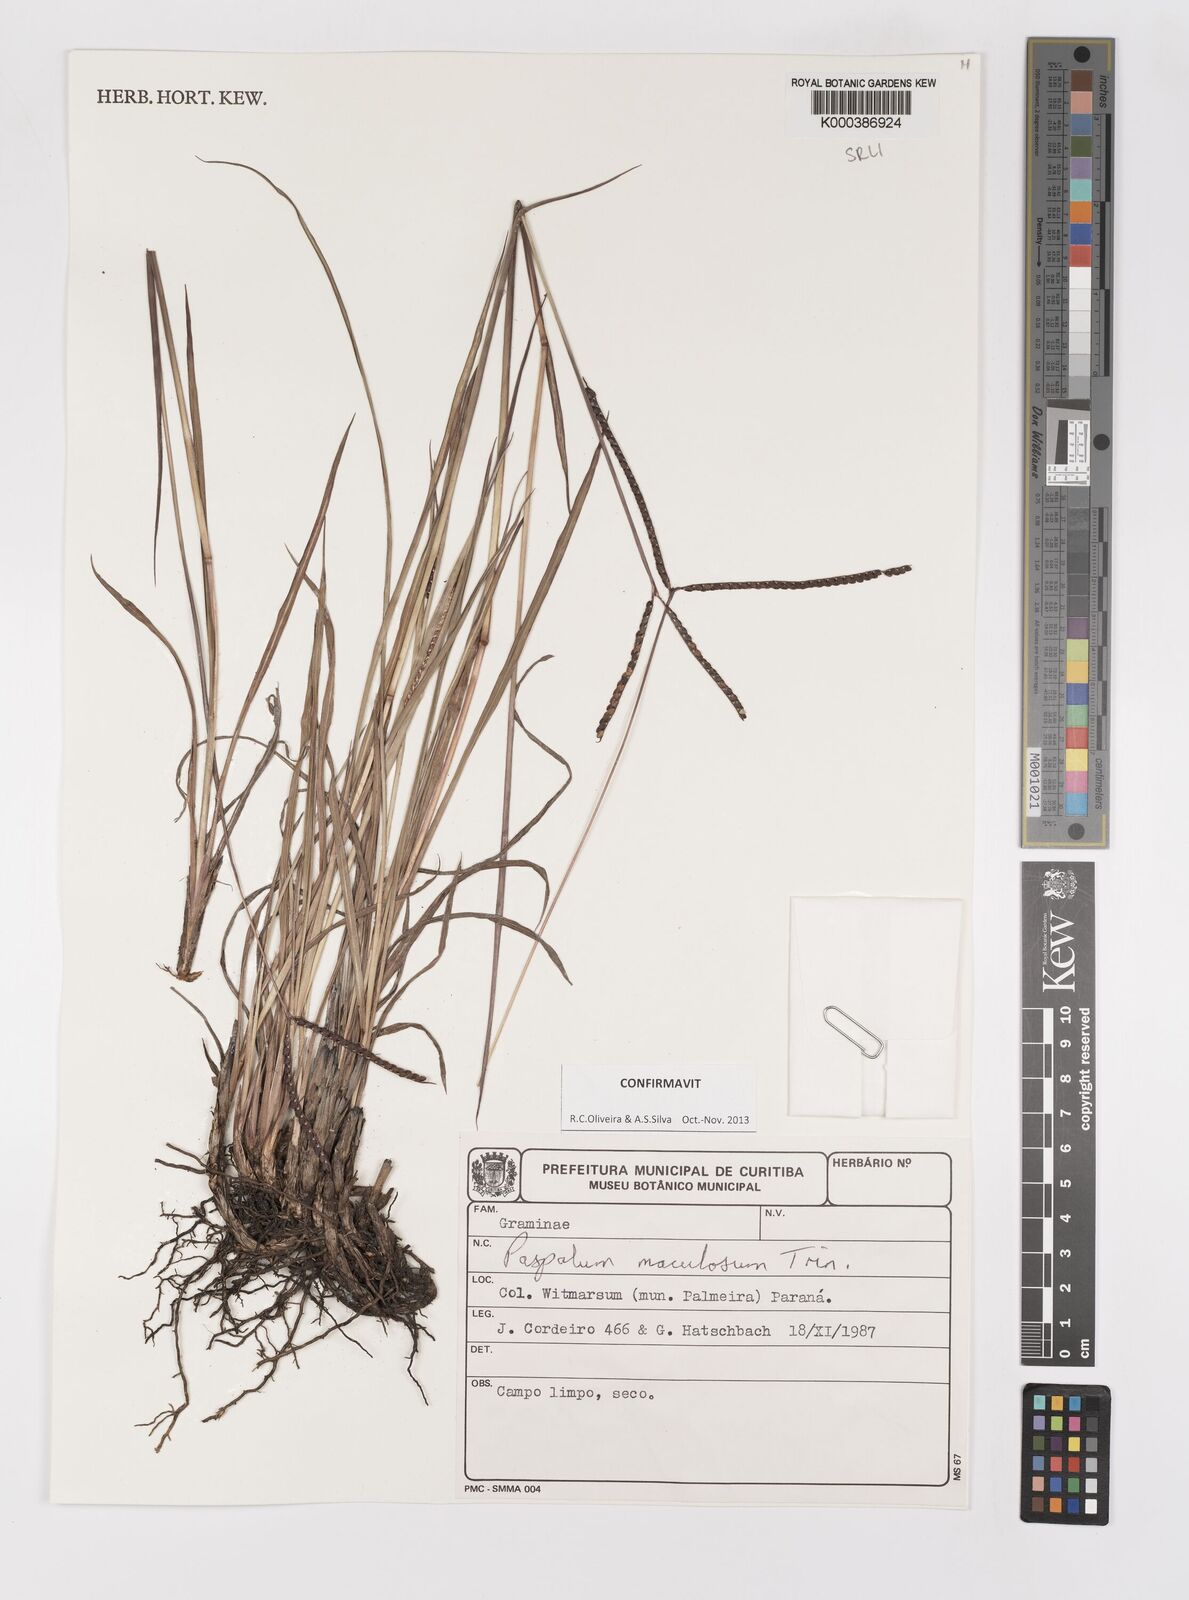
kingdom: Plantae
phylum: Tracheophyta
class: Liliopsida
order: Poales
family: Poaceae
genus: Paspalum
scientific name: Paspalum maculosum
